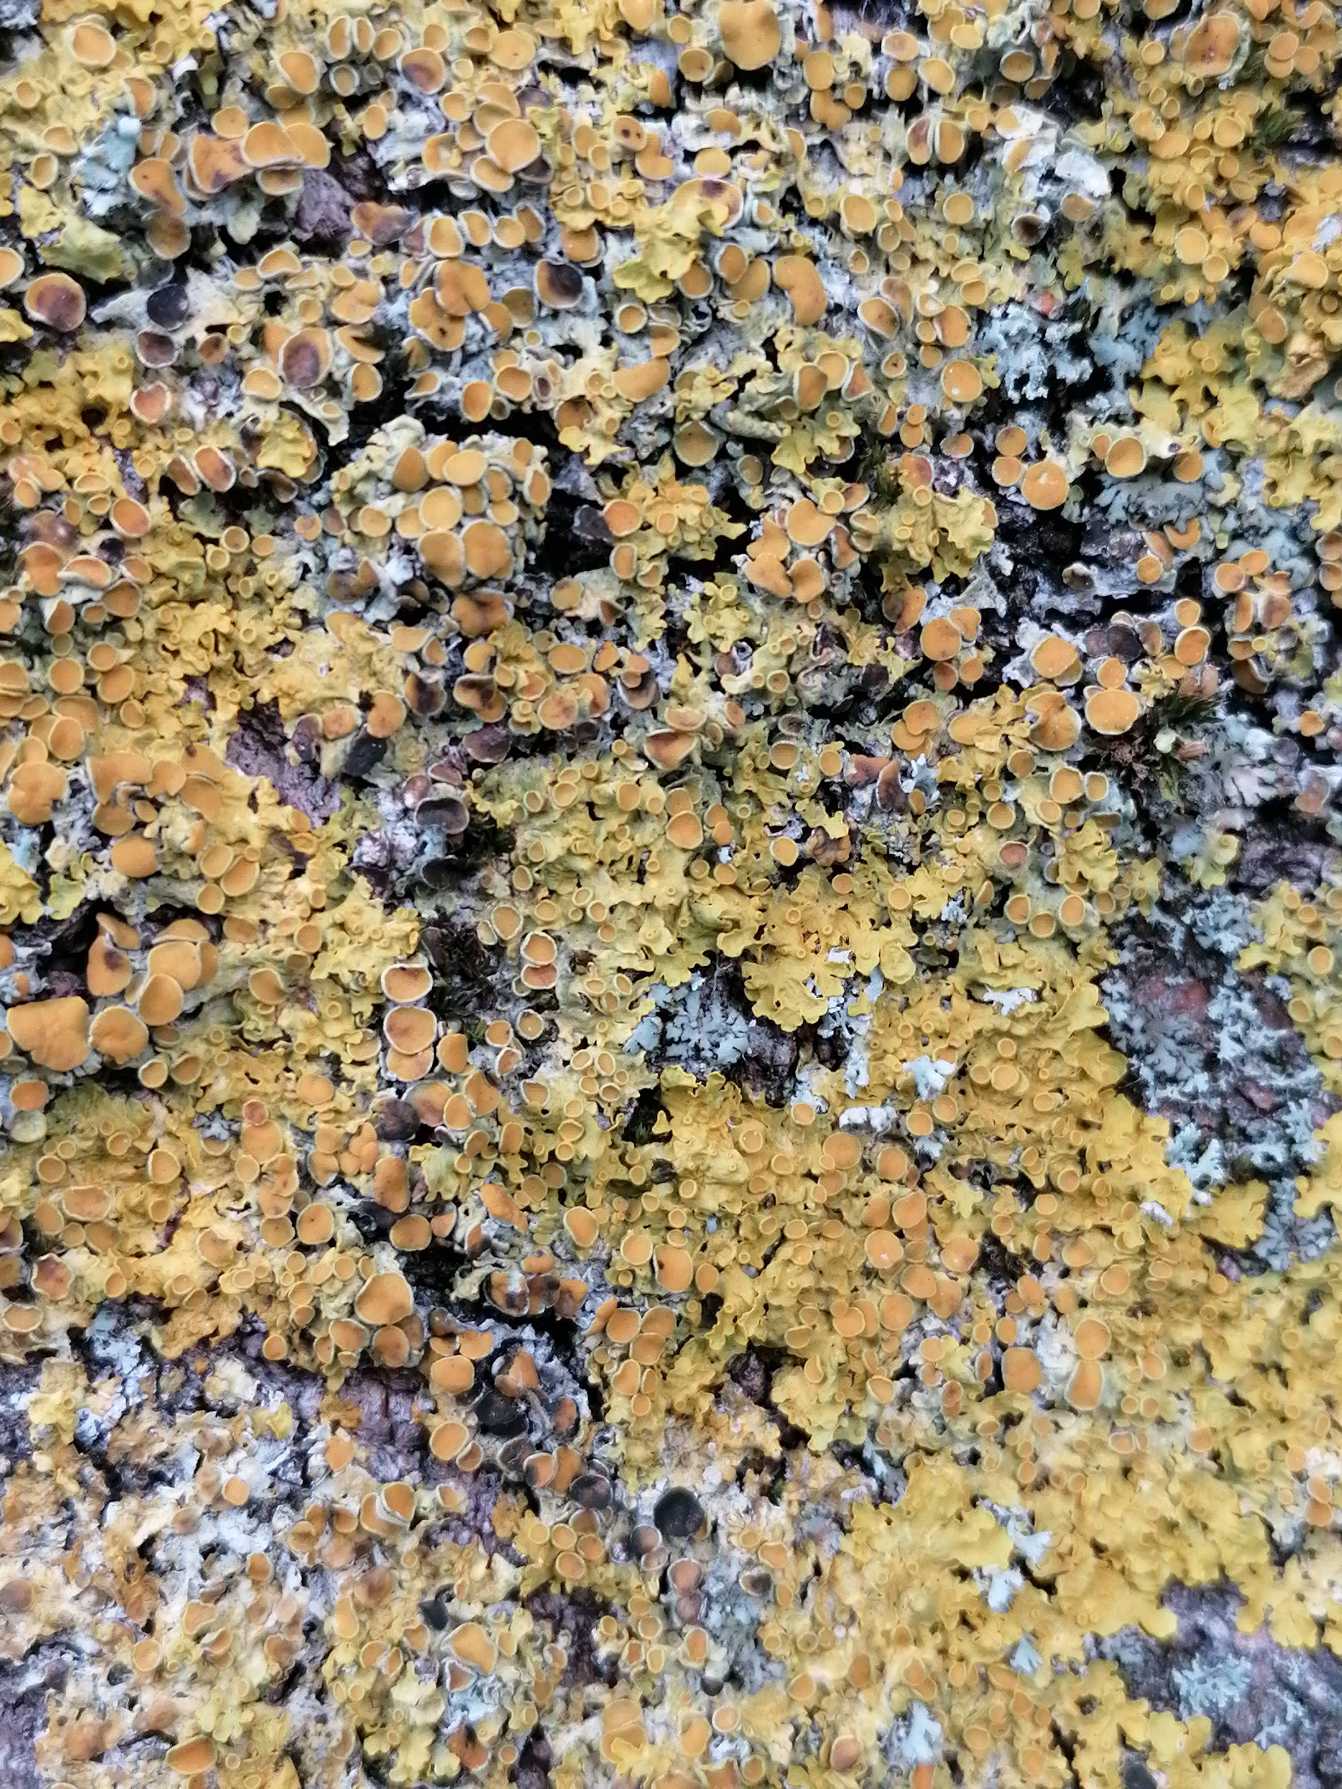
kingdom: Fungi
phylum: Ascomycota
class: Lecanoromycetes
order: Teloschistales
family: Teloschistaceae
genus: Xanthoria
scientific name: Xanthoria parietina
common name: Almindelig væggelav
